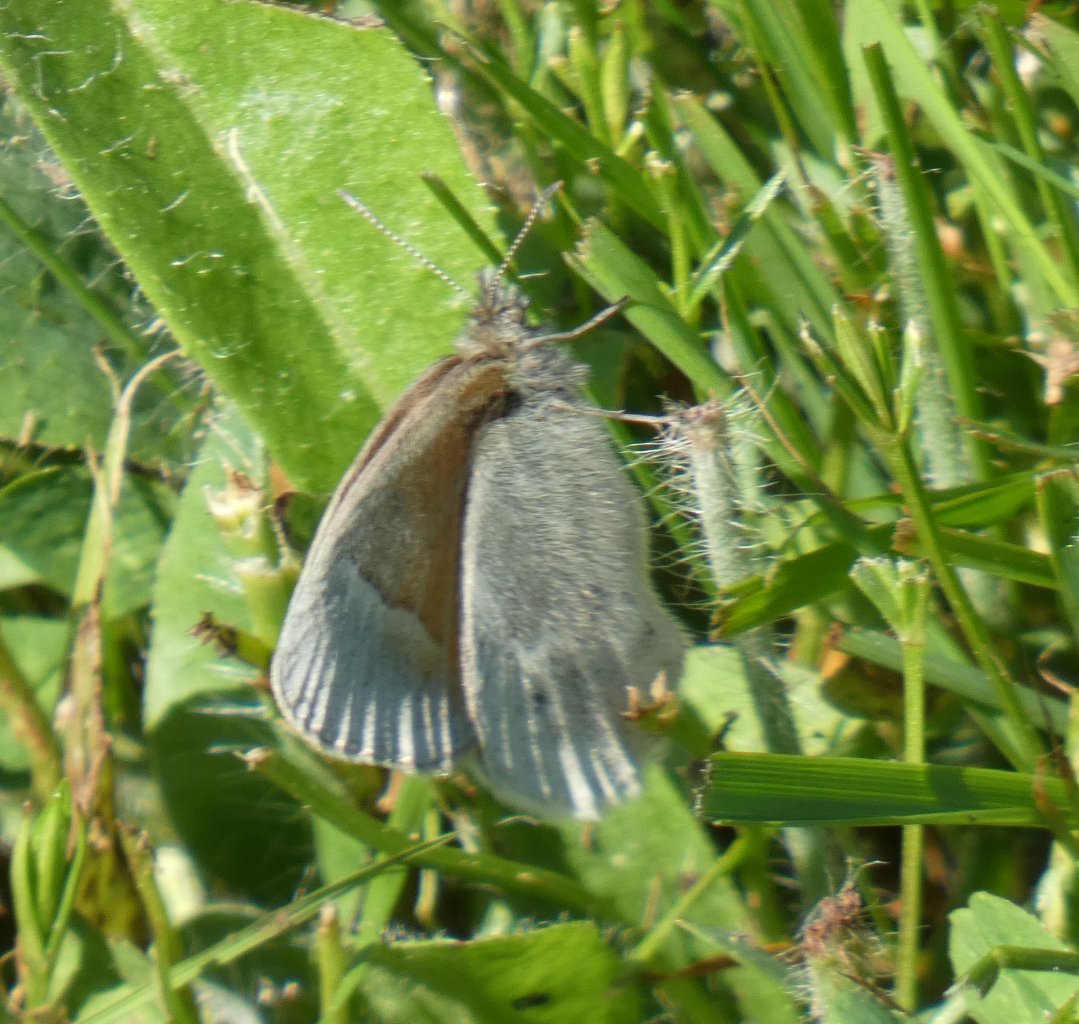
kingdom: Animalia
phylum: Arthropoda
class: Insecta
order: Lepidoptera
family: Nymphalidae
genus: Coenonympha
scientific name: Coenonympha tullia
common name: Large Heath
